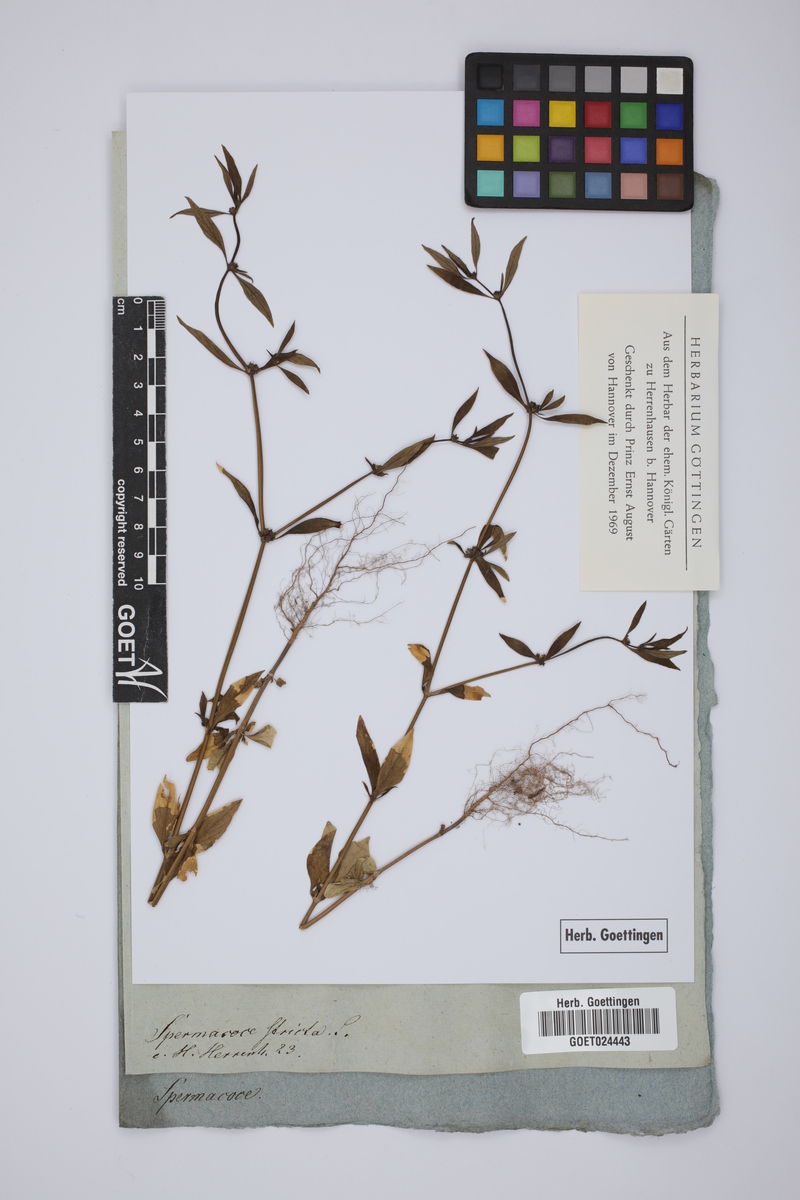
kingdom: Plantae
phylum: Tracheophyta
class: Magnoliopsida
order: Gentianales
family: Rubiaceae
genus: Scleromitrion
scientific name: Scleromitrion tenelliflorum
